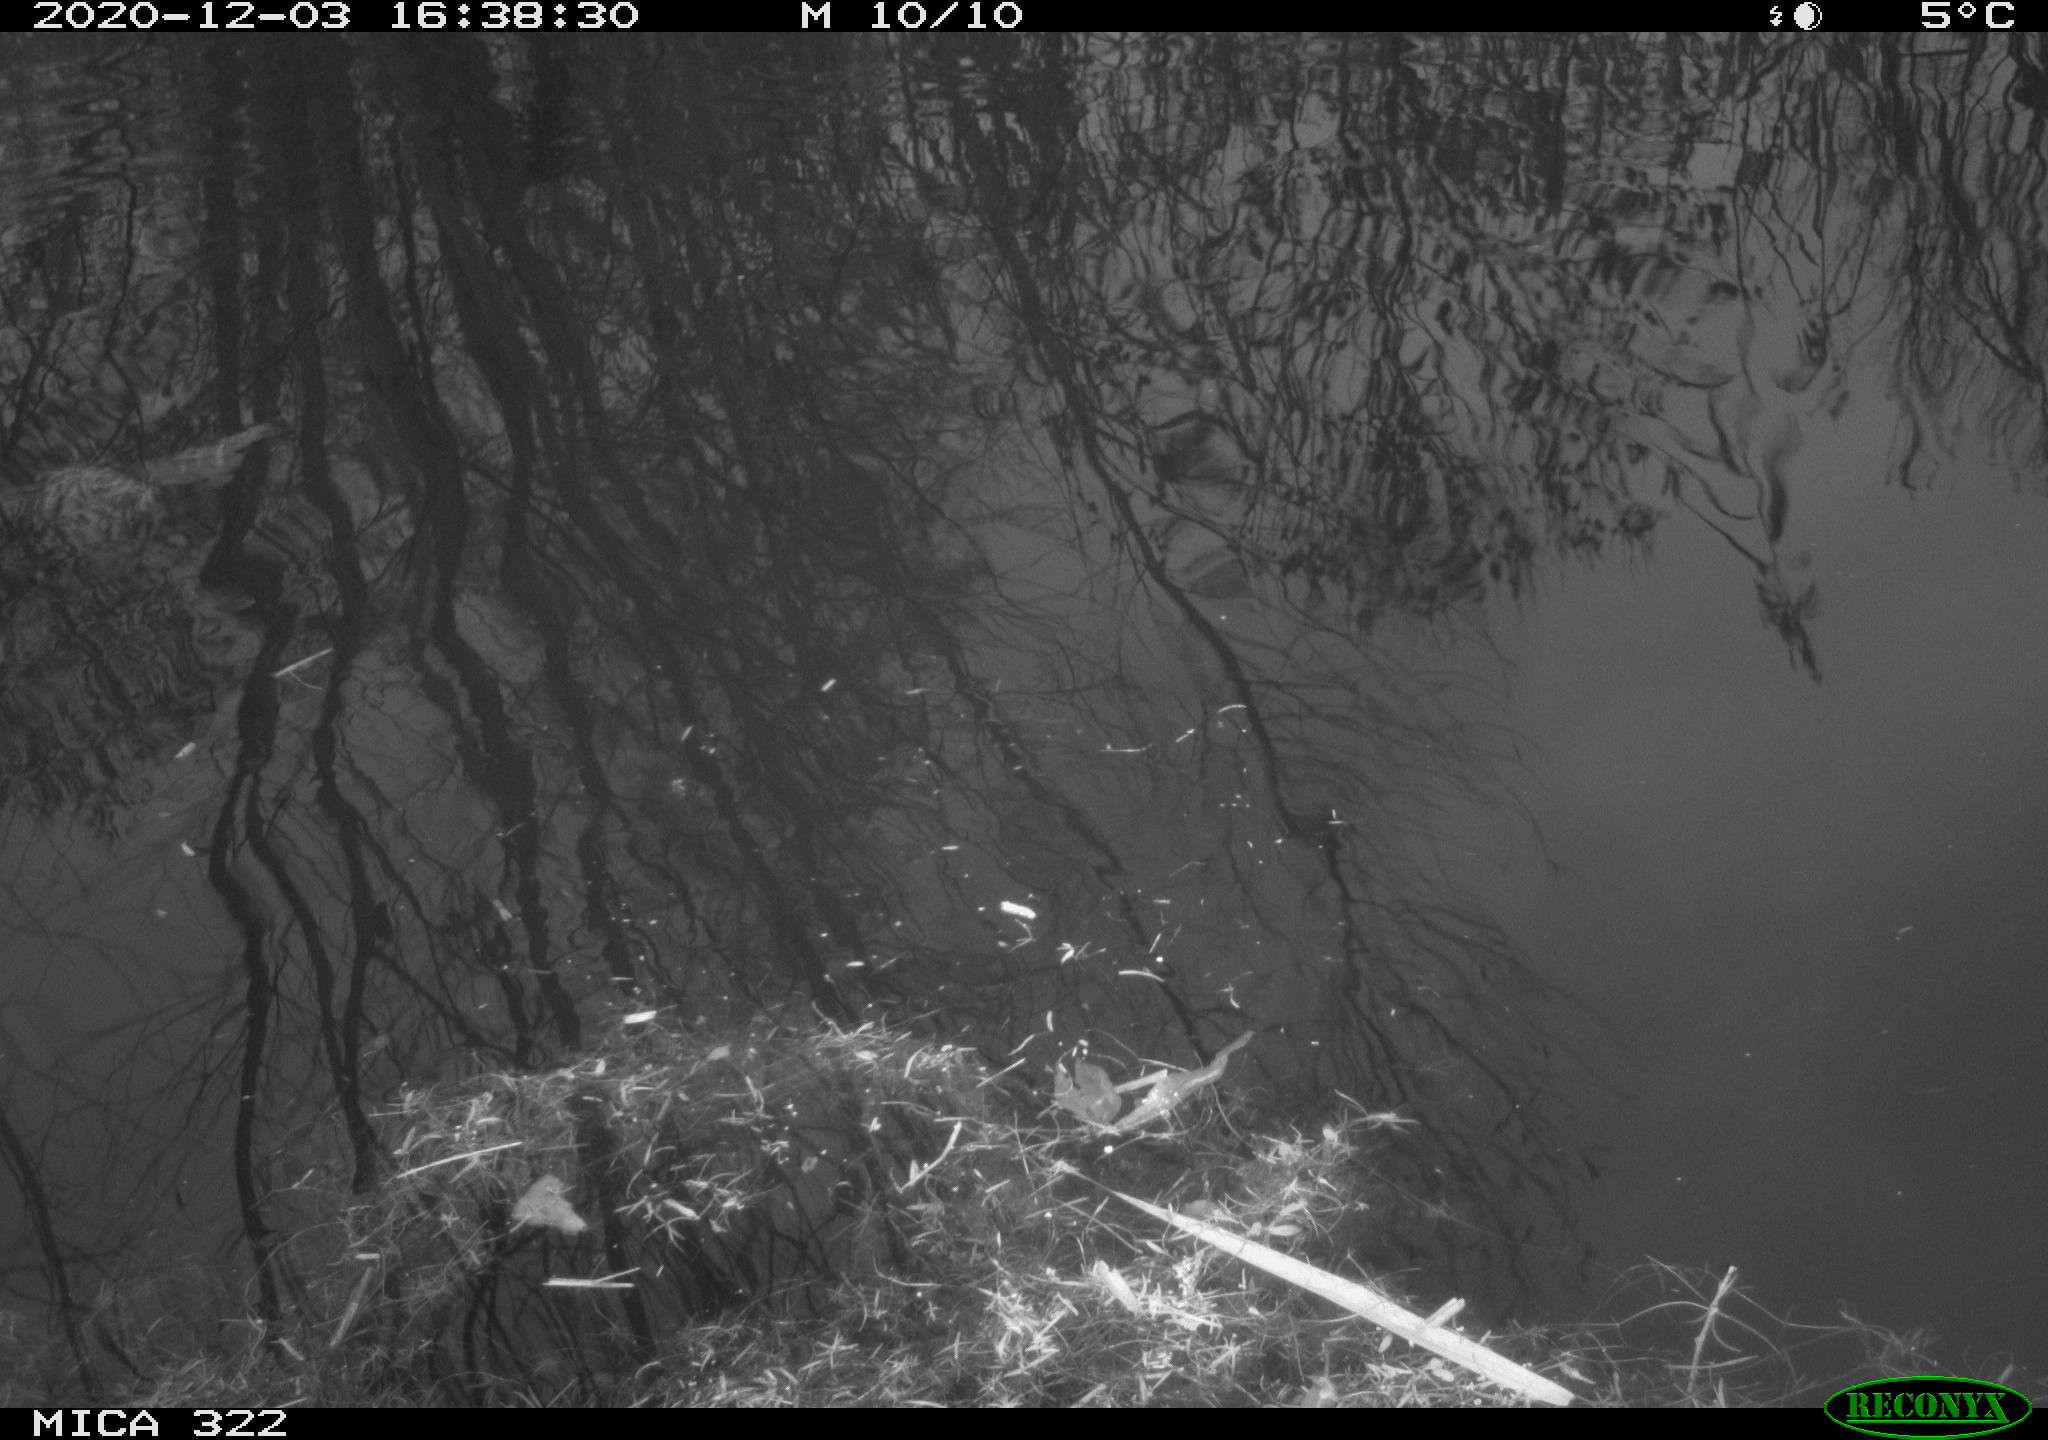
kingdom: Animalia
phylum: Chordata
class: Aves
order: Anseriformes
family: Anatidae
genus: Mareca
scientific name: Mareca strepera
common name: Gadwall
